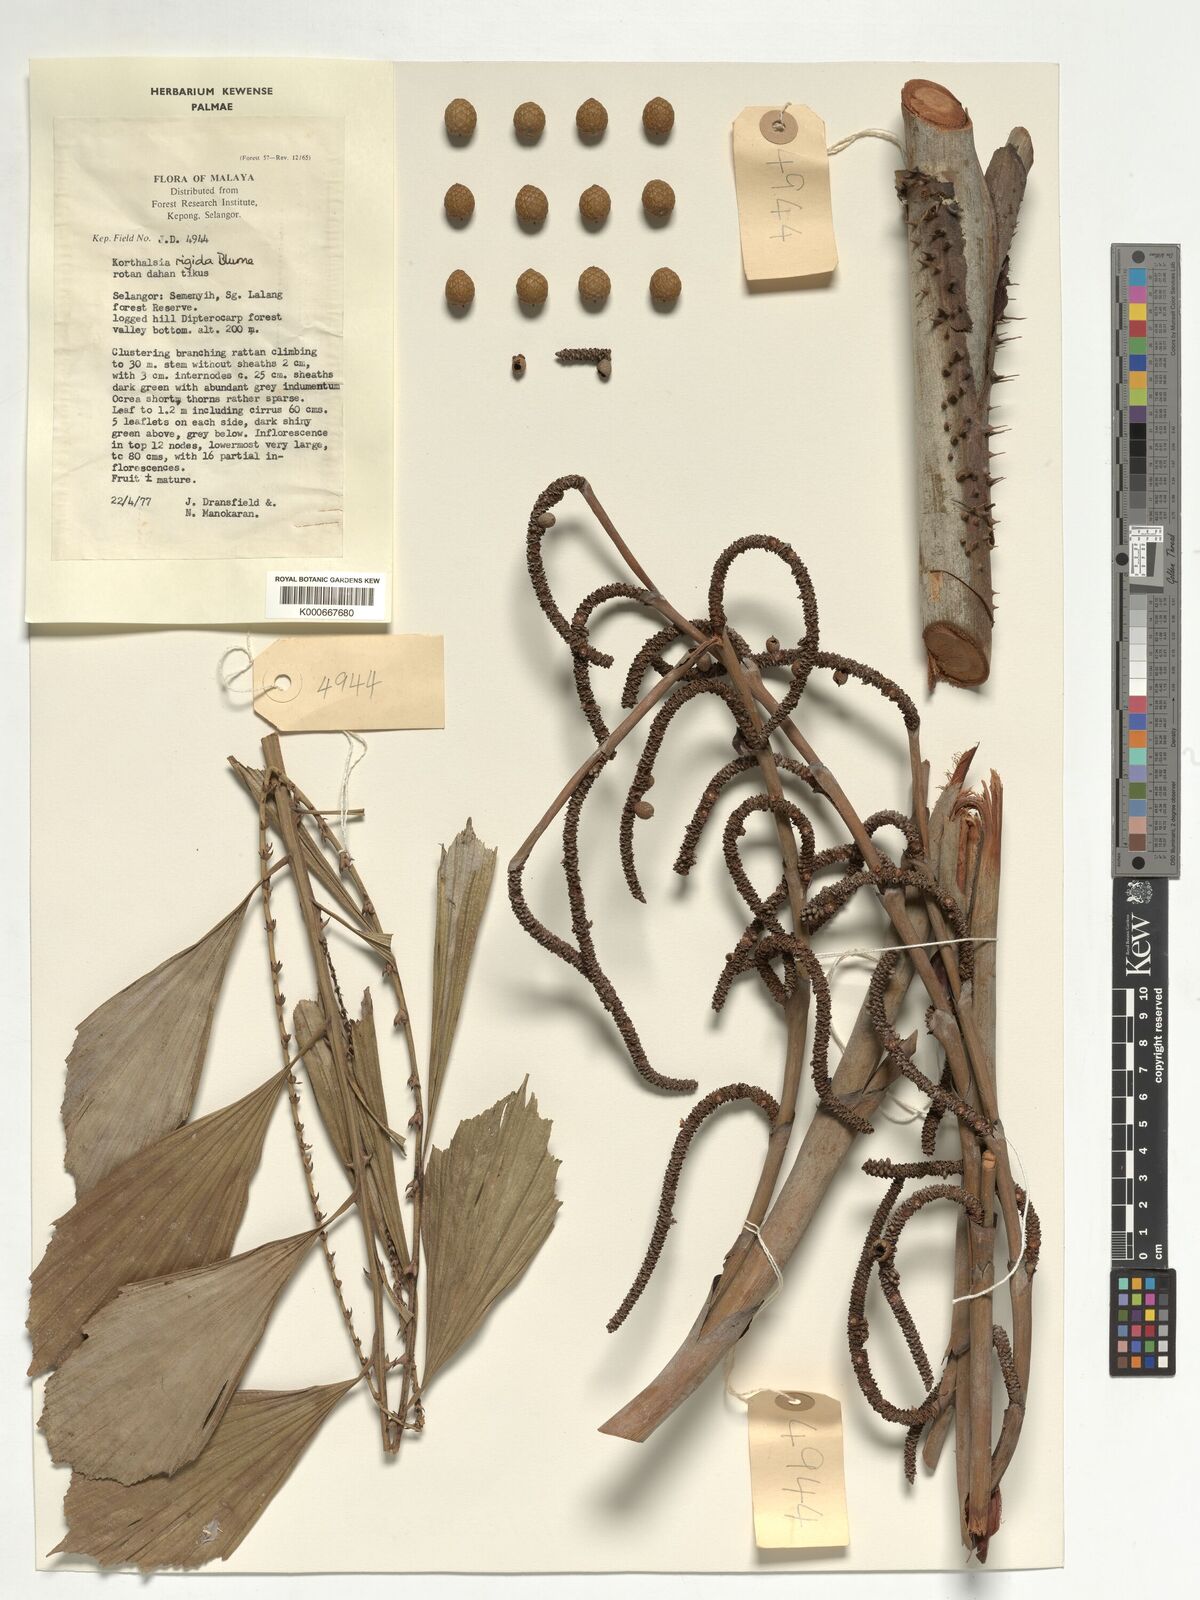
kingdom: Plantae
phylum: Tracheophyta
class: Liliopsida
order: Arecales
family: Arecaceae
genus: Korthalsia
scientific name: Korthalsia rigida
